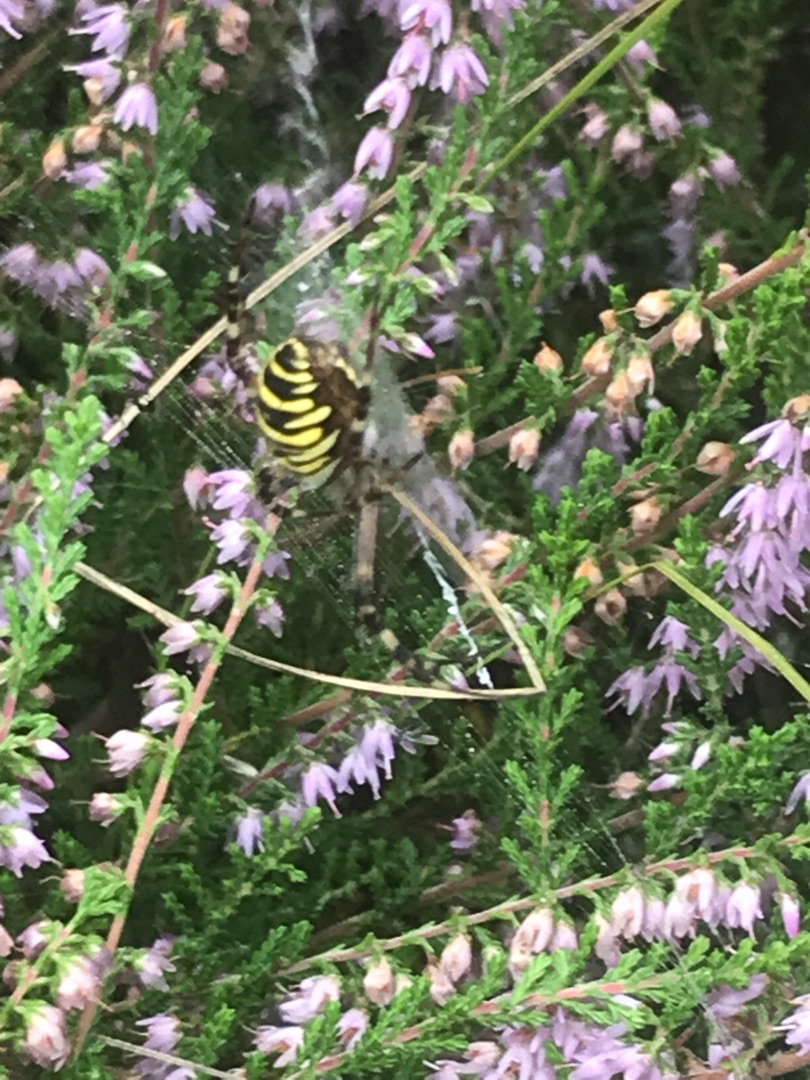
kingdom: Animalia
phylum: Arthropoda
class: Arachnida
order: Araneae
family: Araneidae
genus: Argiope
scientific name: Argiope bruennichi
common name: Hvepseedderkop
